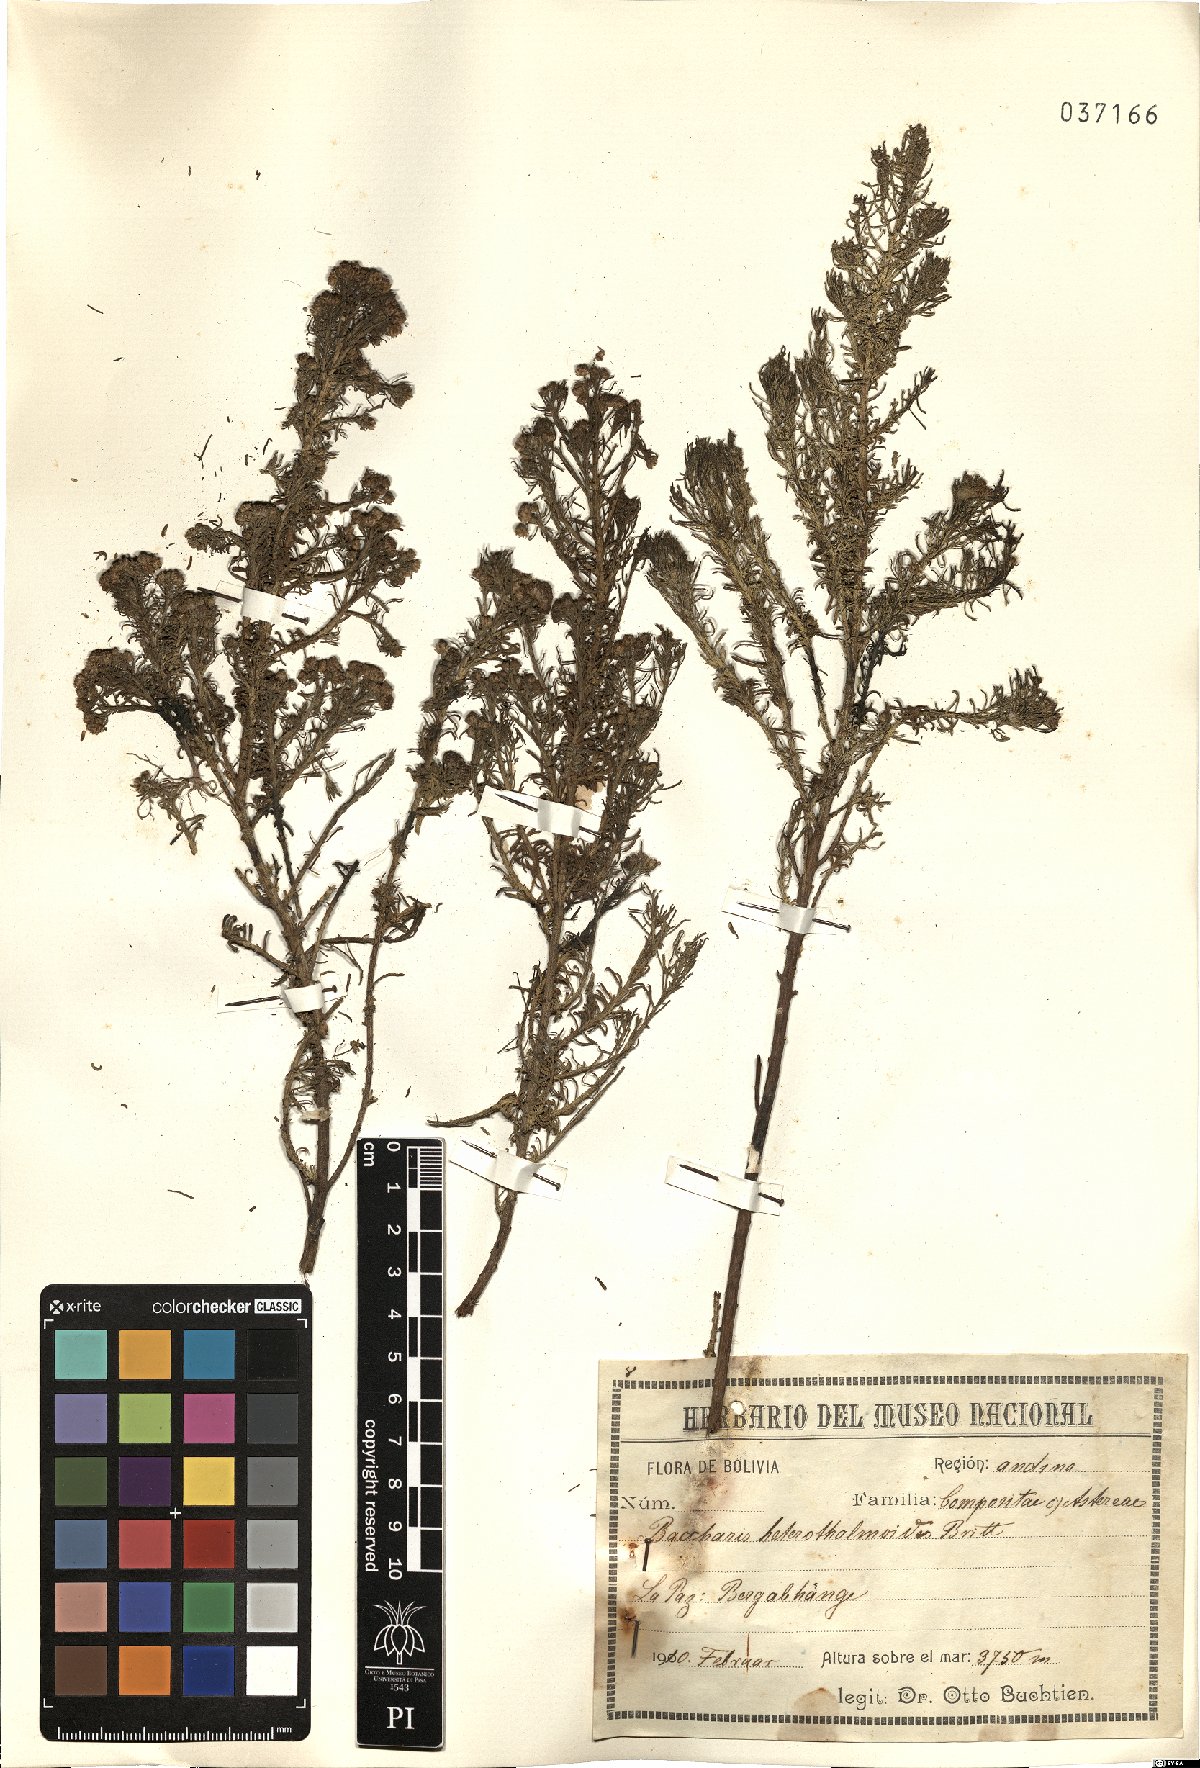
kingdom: Plantae
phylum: Tracheophyta
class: Magnoliopsida
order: Asterales
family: Asteraceae
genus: Baccharis
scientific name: Baccharis darwinii
